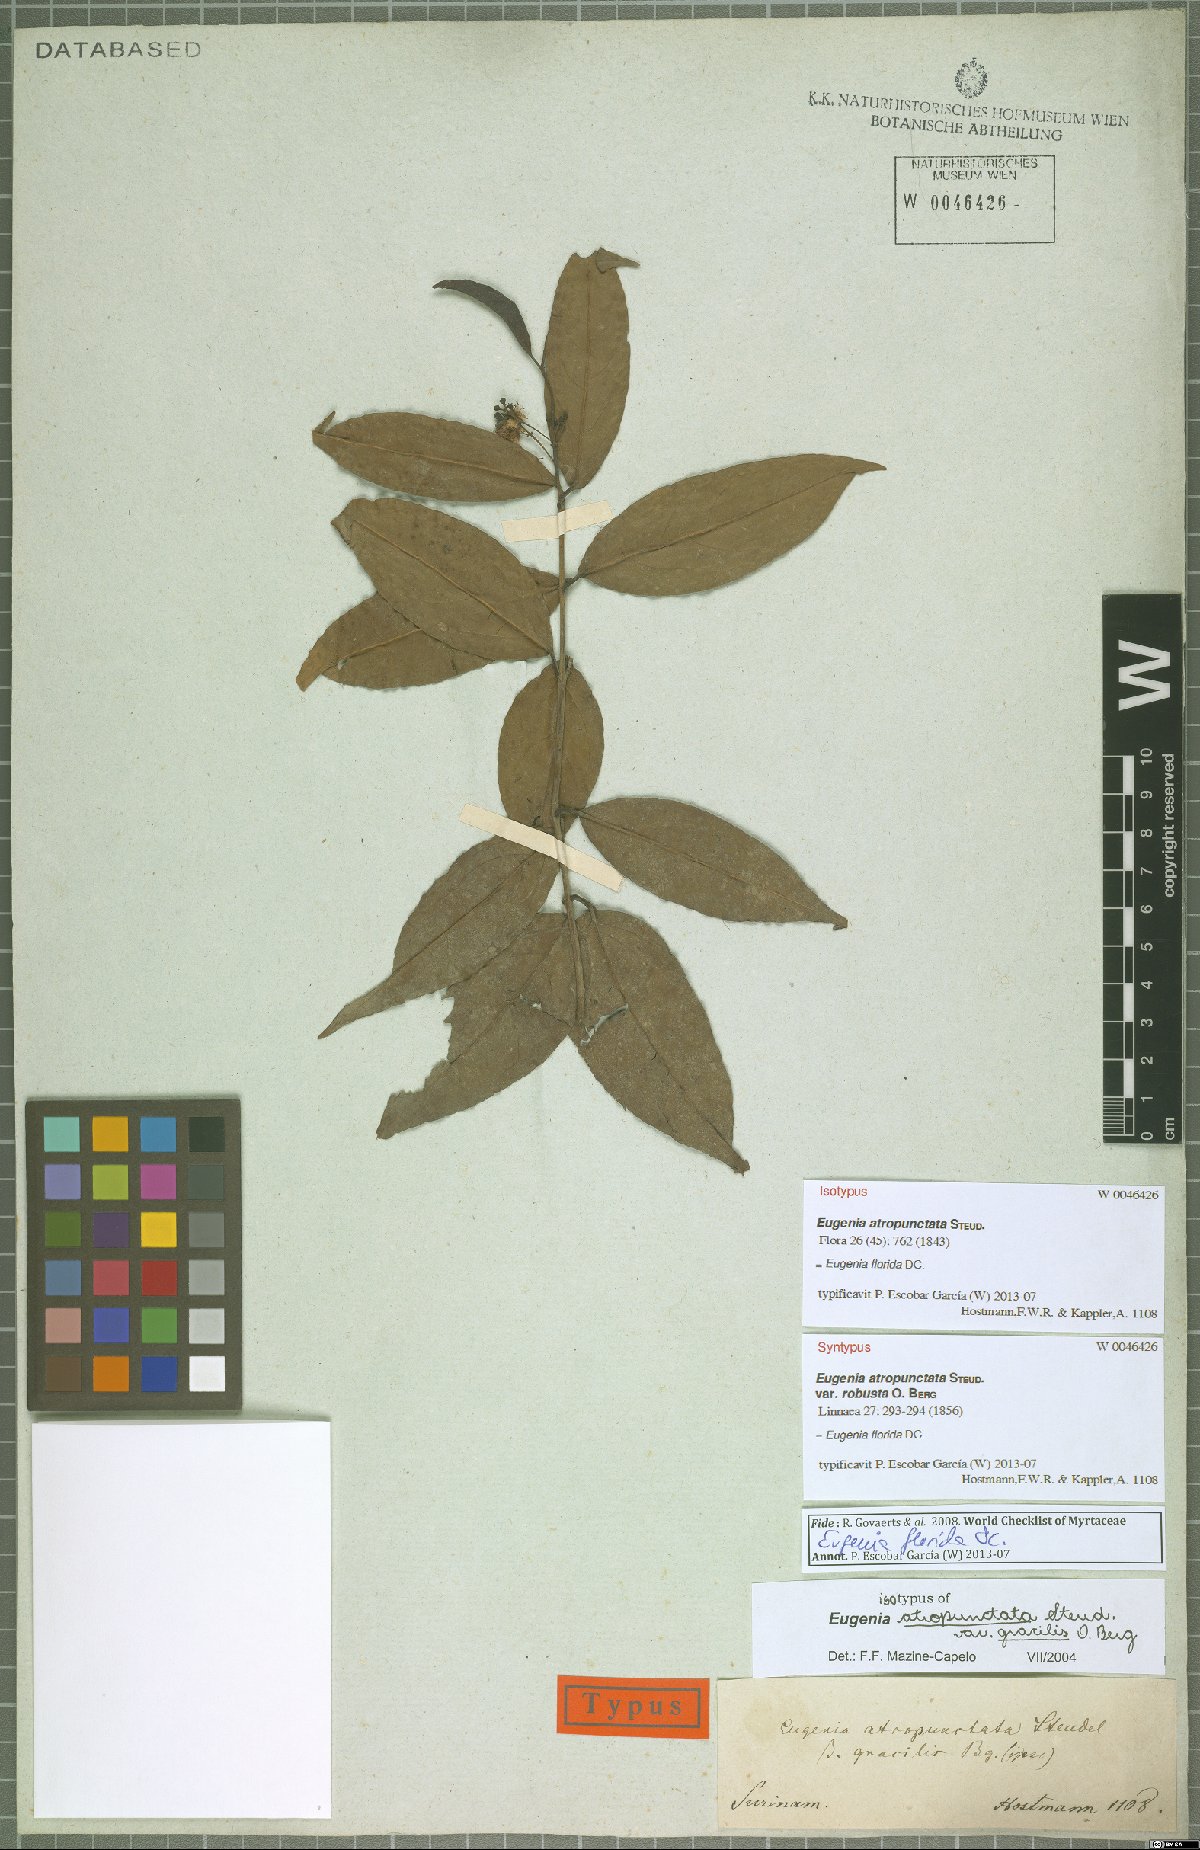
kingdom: Plantae
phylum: Tracheophyta
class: Magnoliopsida
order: Myrtales
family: Myrtaceae
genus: Eugenia
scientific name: Eugenia florida
